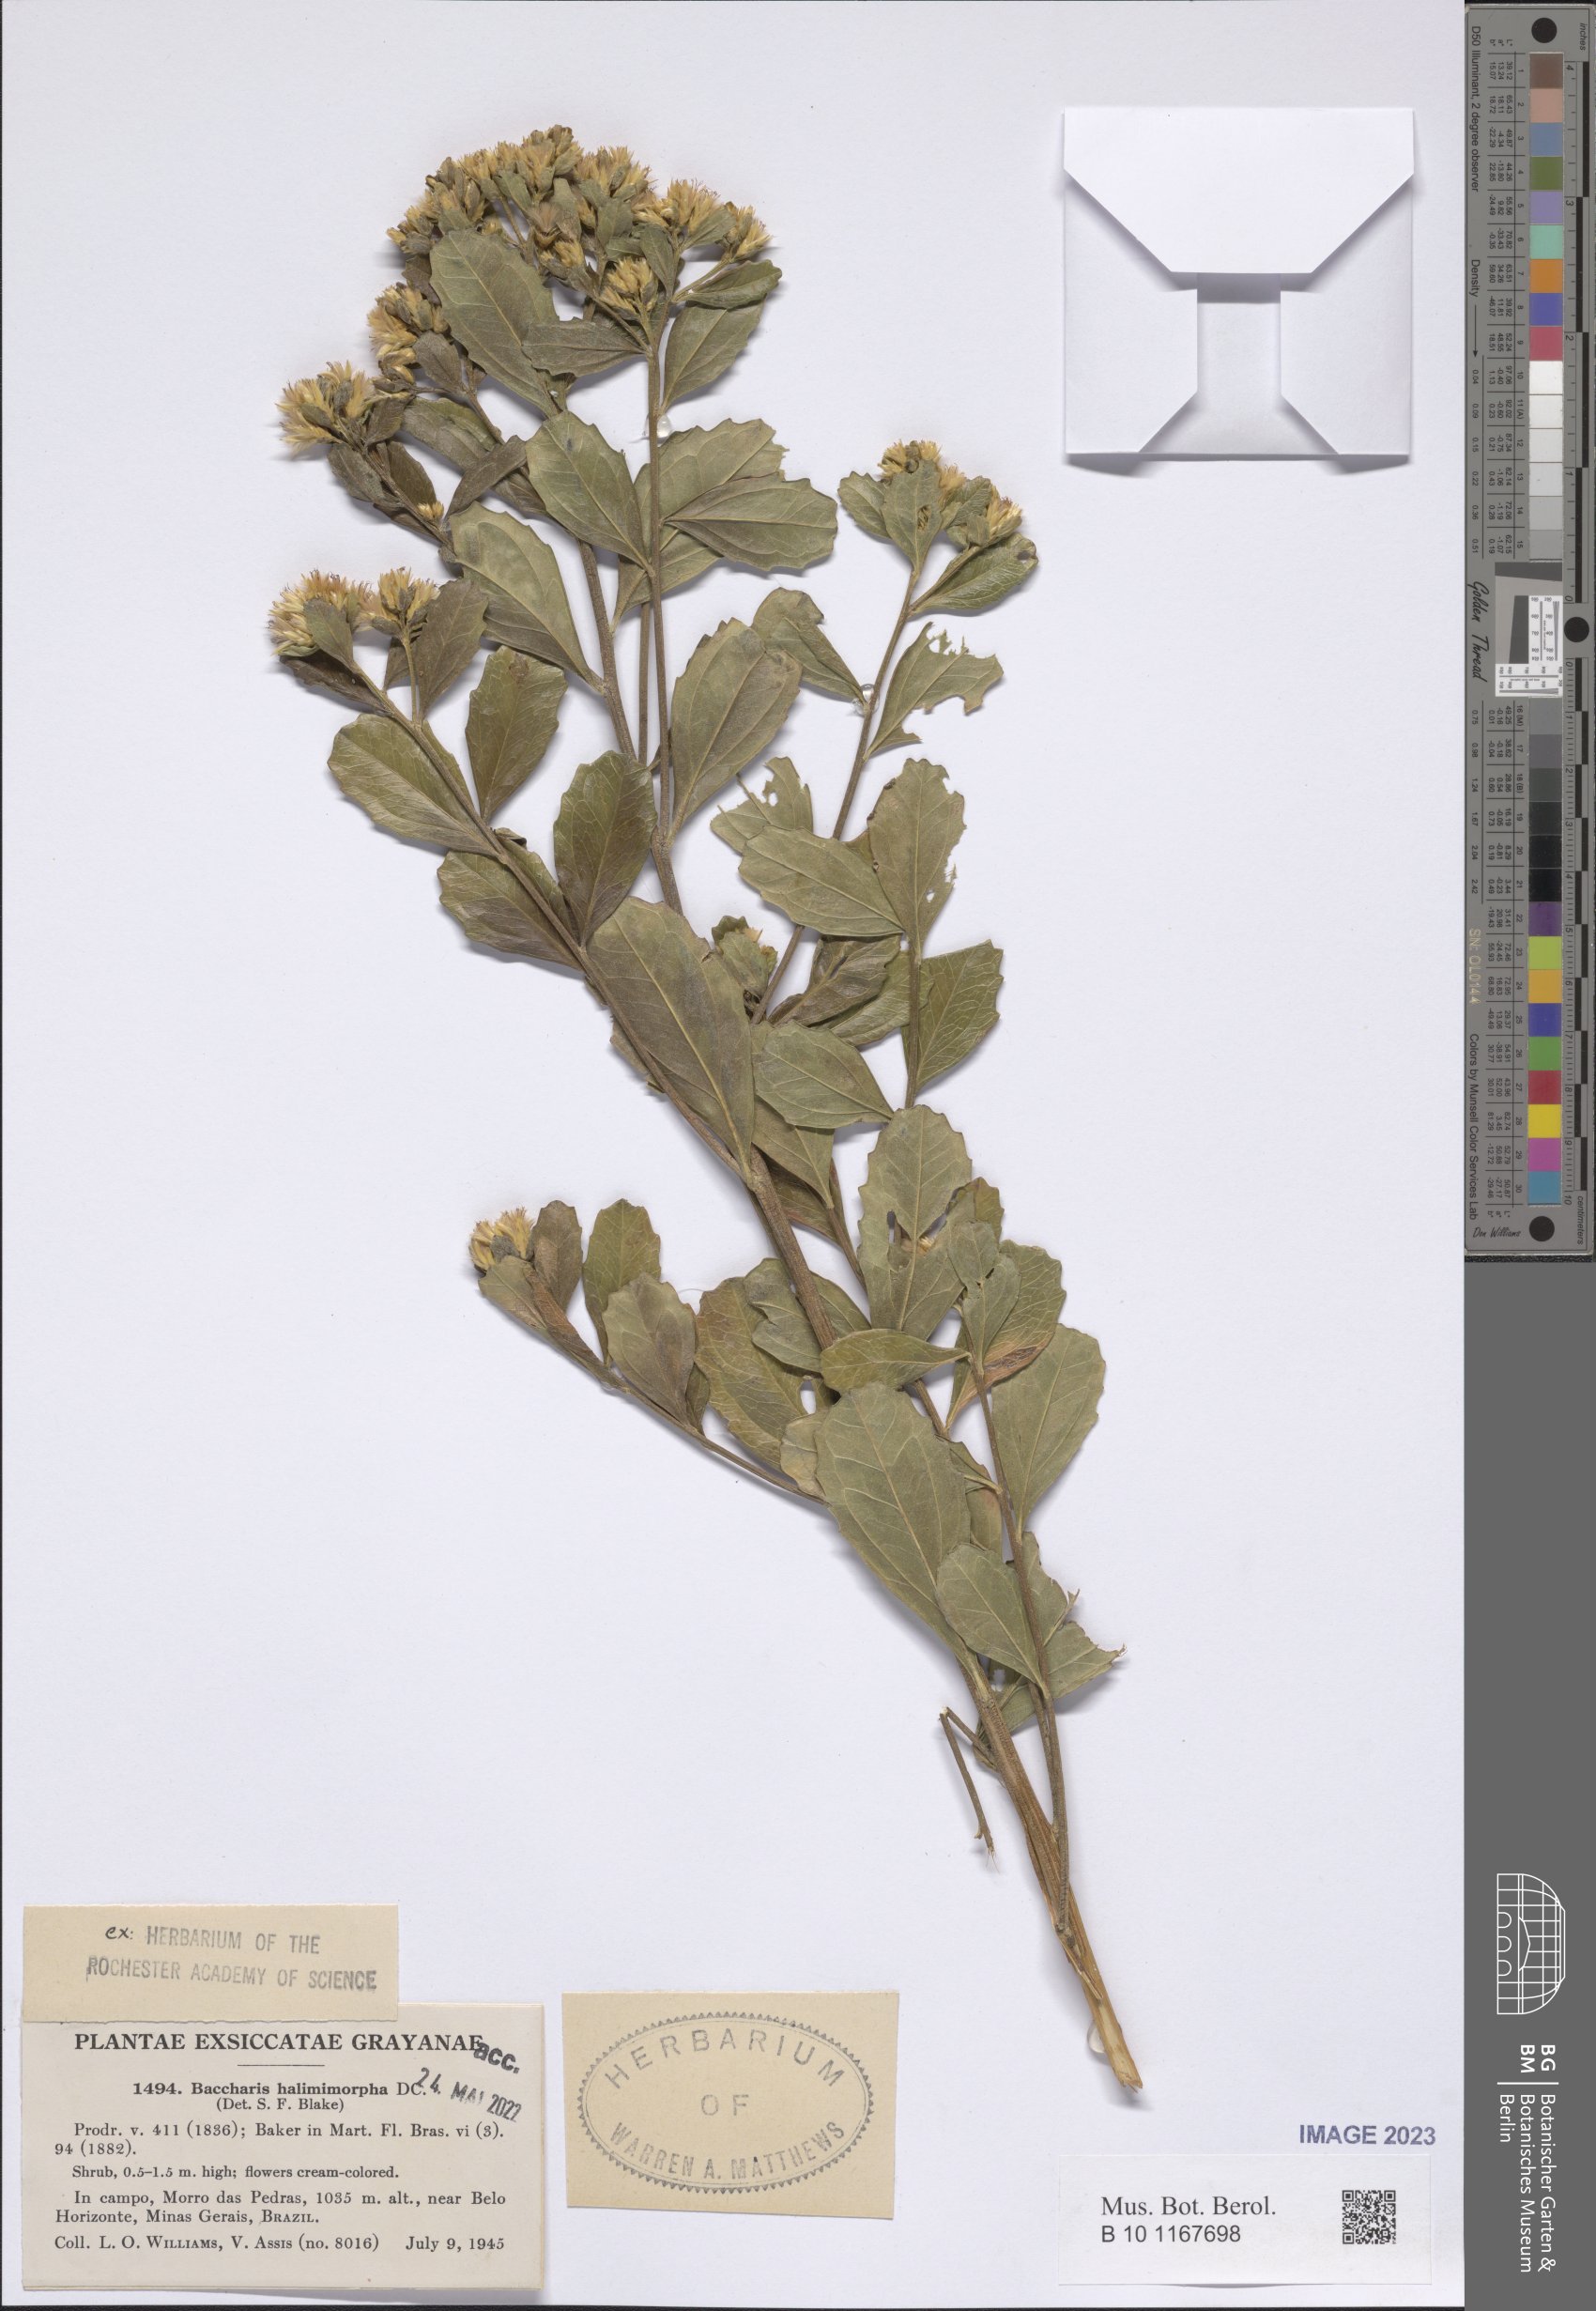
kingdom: Plantae
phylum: Tracheophyta
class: Magnoliopsida
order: Asterales
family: Asteraceae
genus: Baccharis
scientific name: Baccharis retusa
